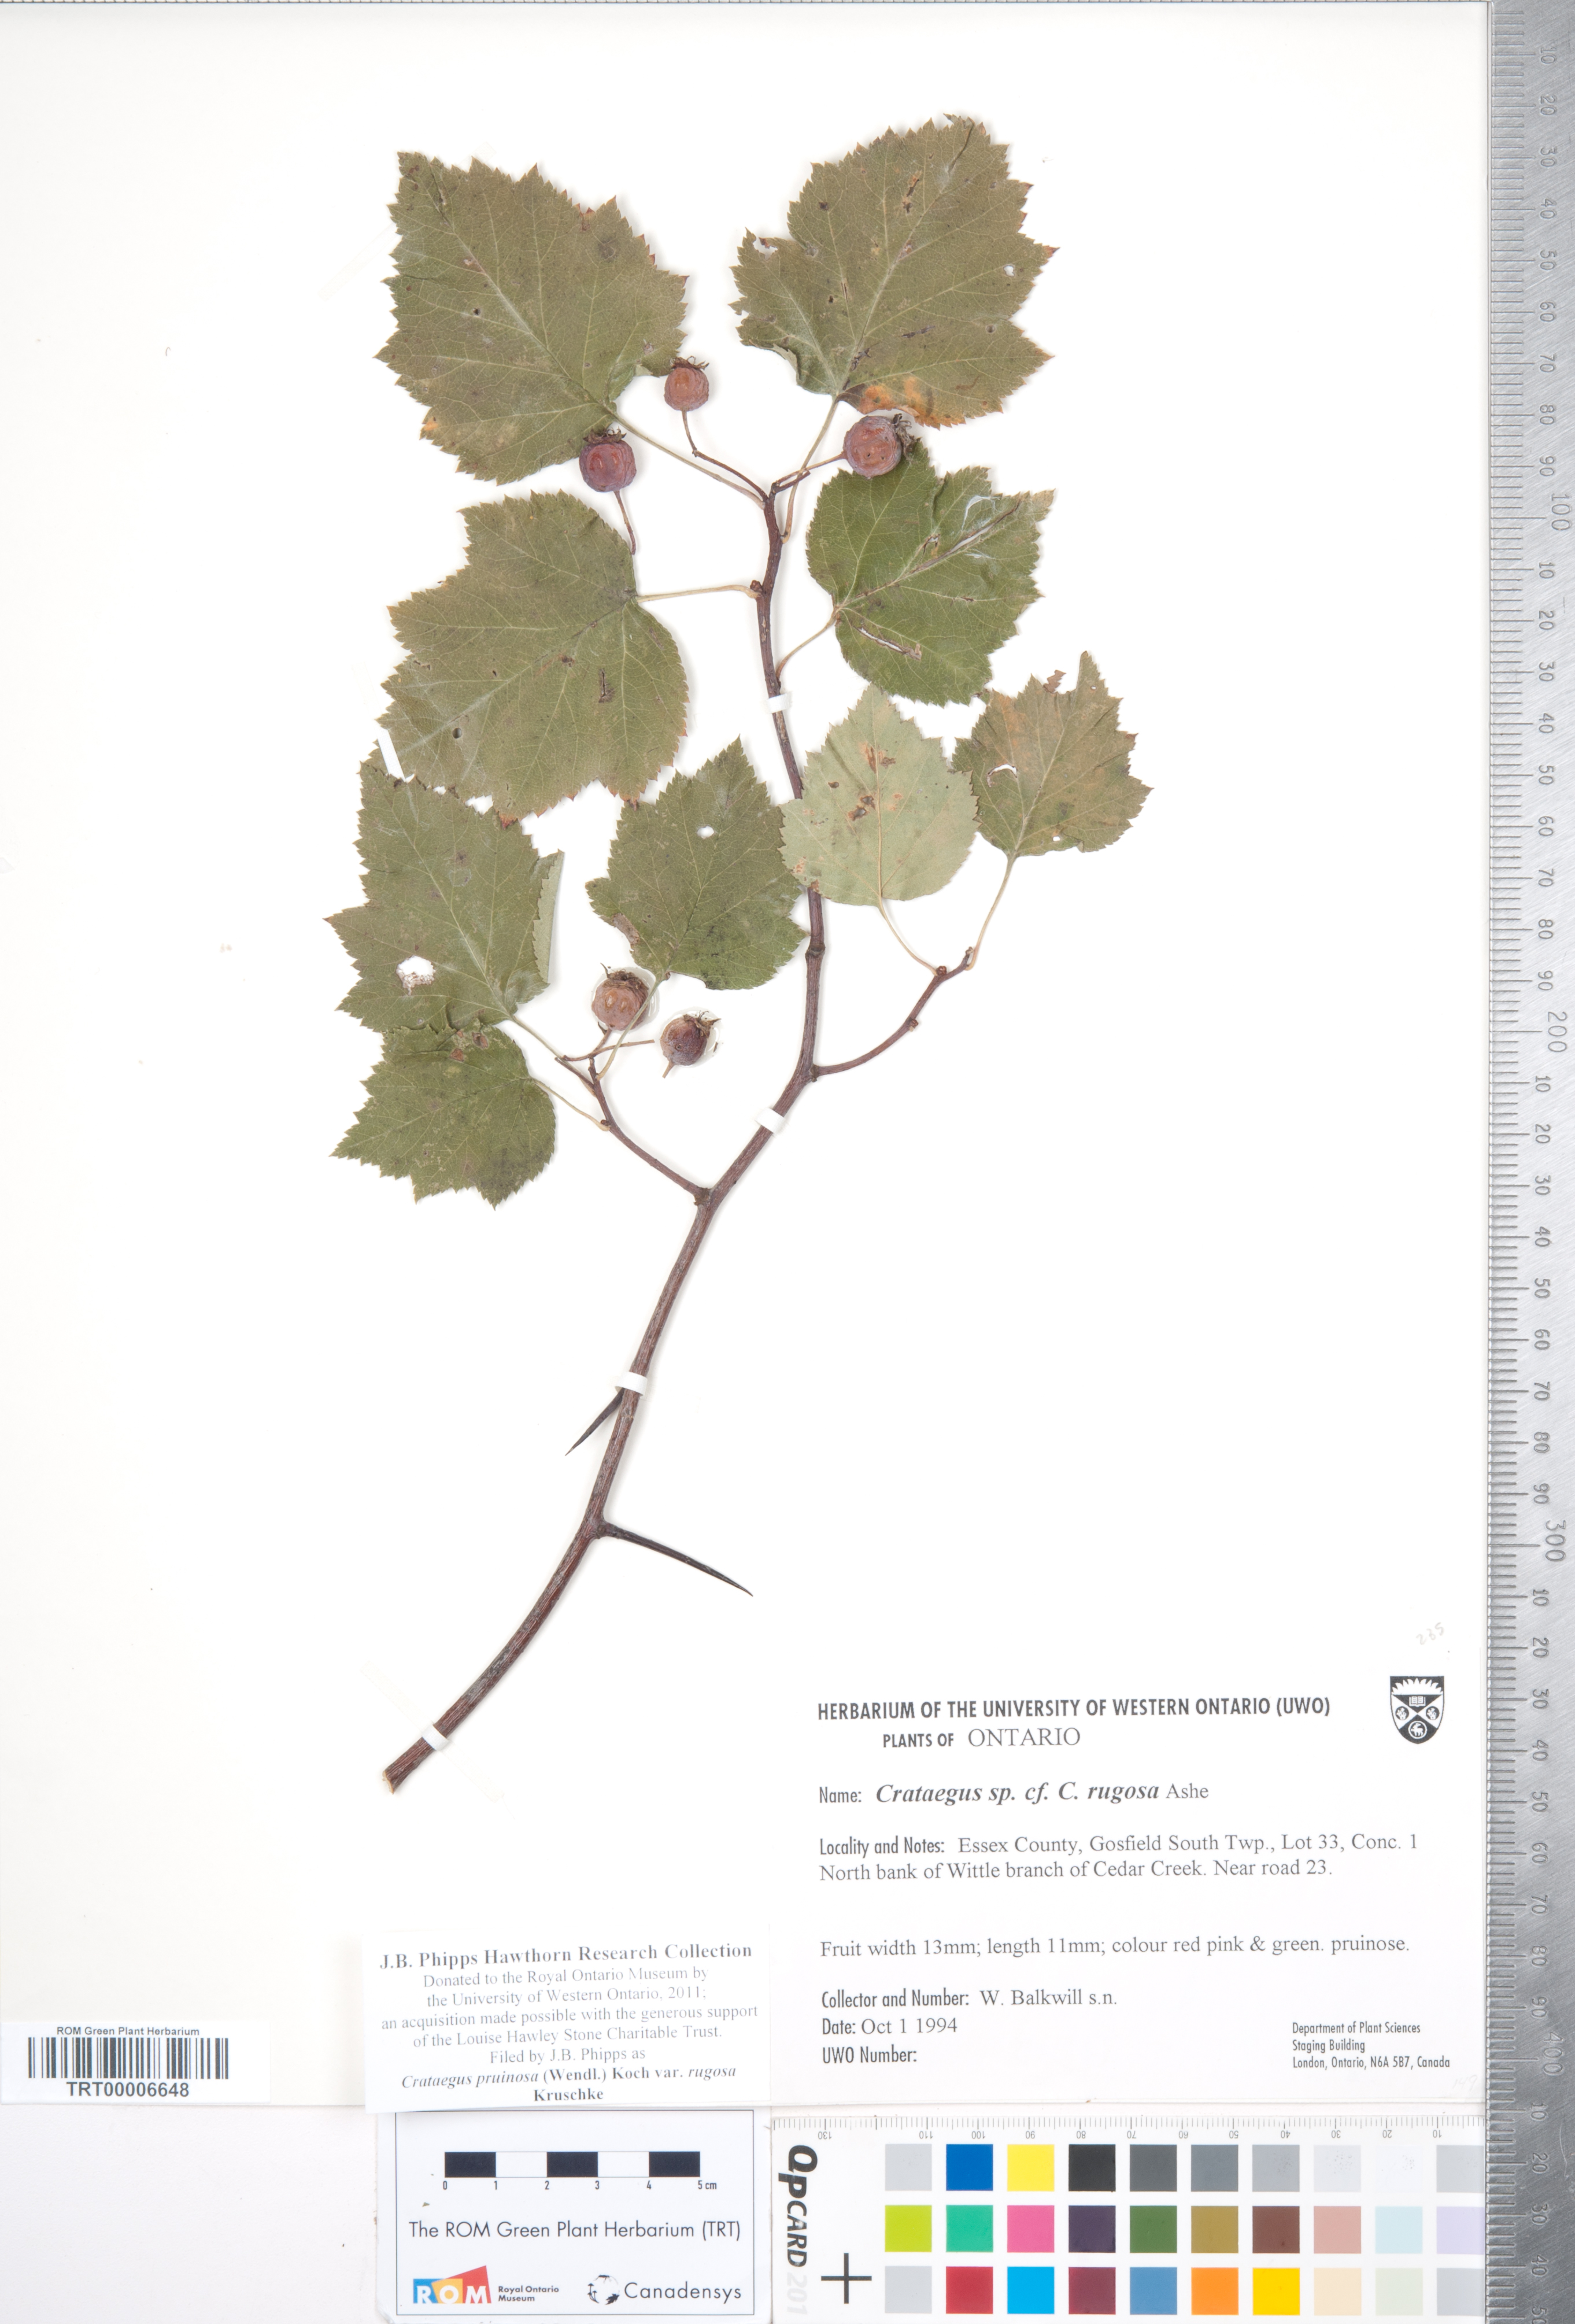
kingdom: Plantae
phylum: Tracheophyta
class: Magnoliopsida
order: Rosales
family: Rosaceae
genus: Crataegus
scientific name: Crataegus pruinosa
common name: Waxy-fruit hawthorn
